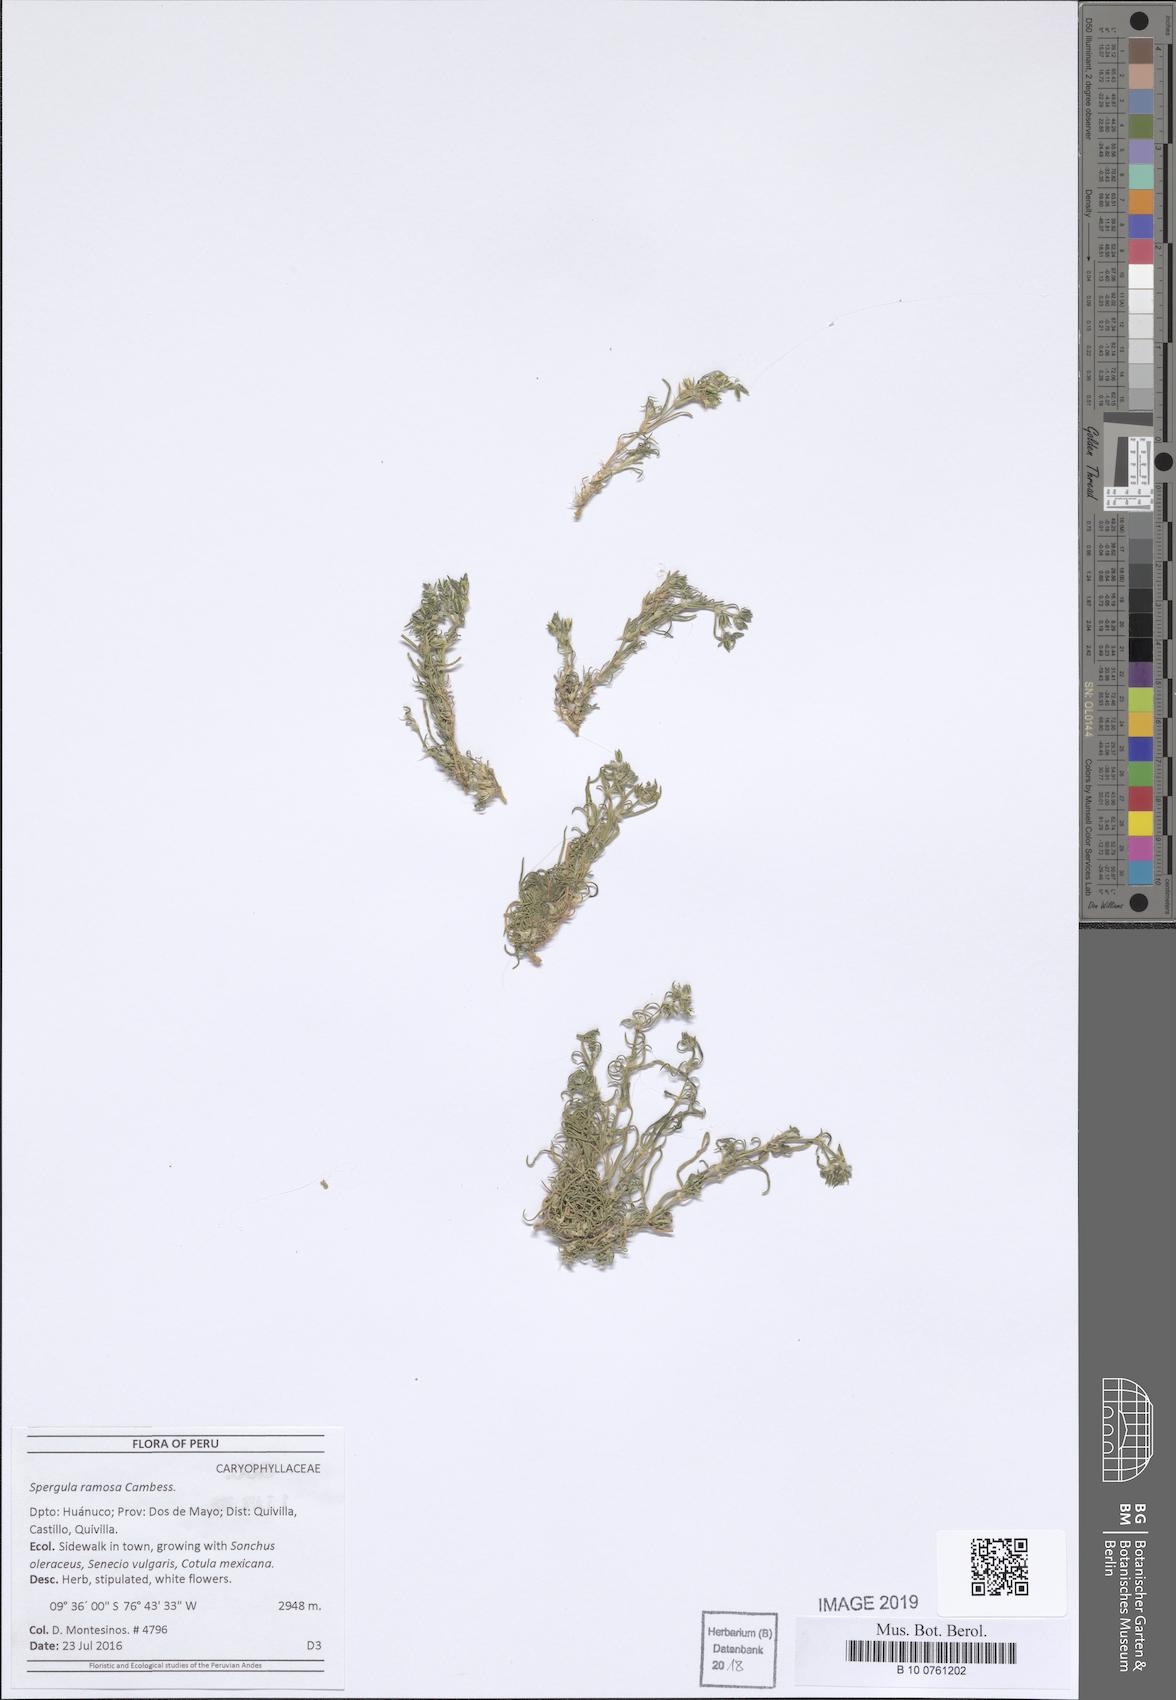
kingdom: Plantae
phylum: Tracheophyta
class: Magnoliopsida
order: Caryophyllales
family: Caryophyllaceae
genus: Spergula
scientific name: Spergula ramosa
